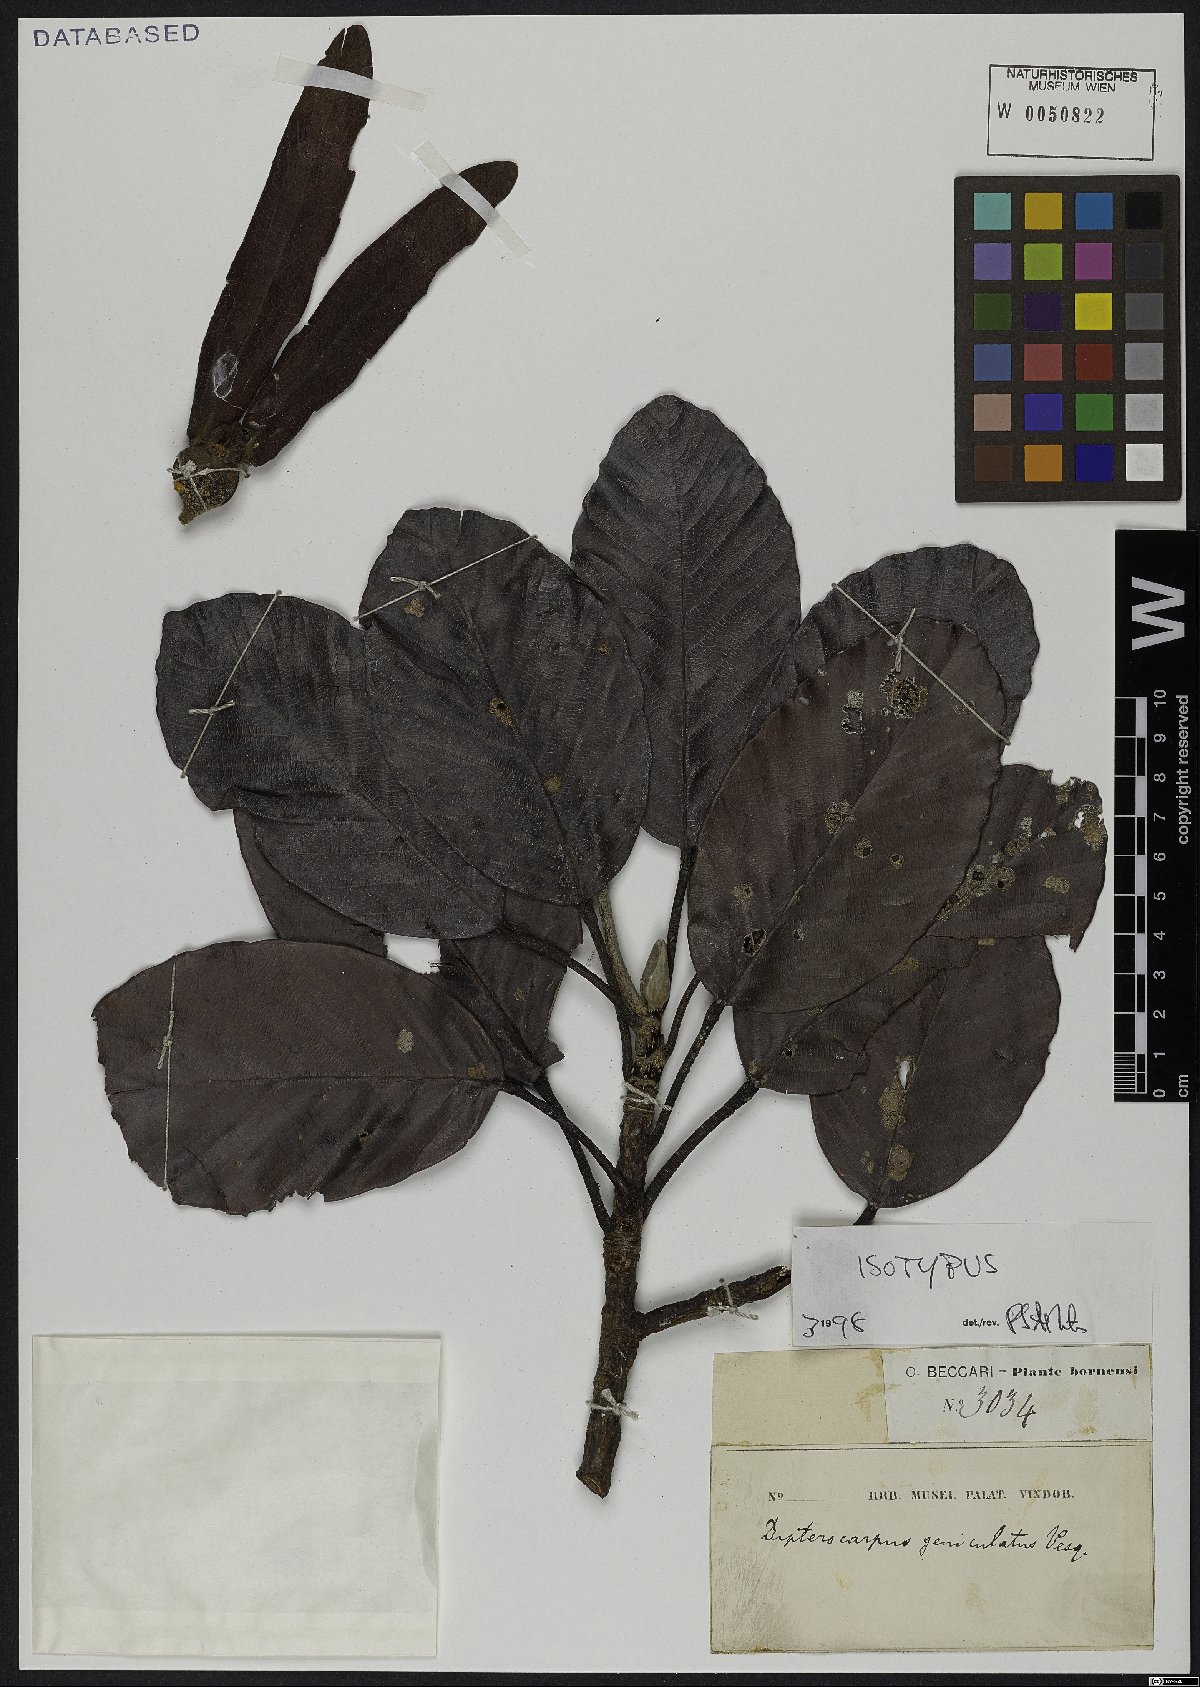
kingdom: Plantae
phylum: Tracheophyta
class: Magnoliopsida
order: Malvales
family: Dipterocarpaceae
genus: Dipterocarpus
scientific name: Dipterocarpus geniculatus
